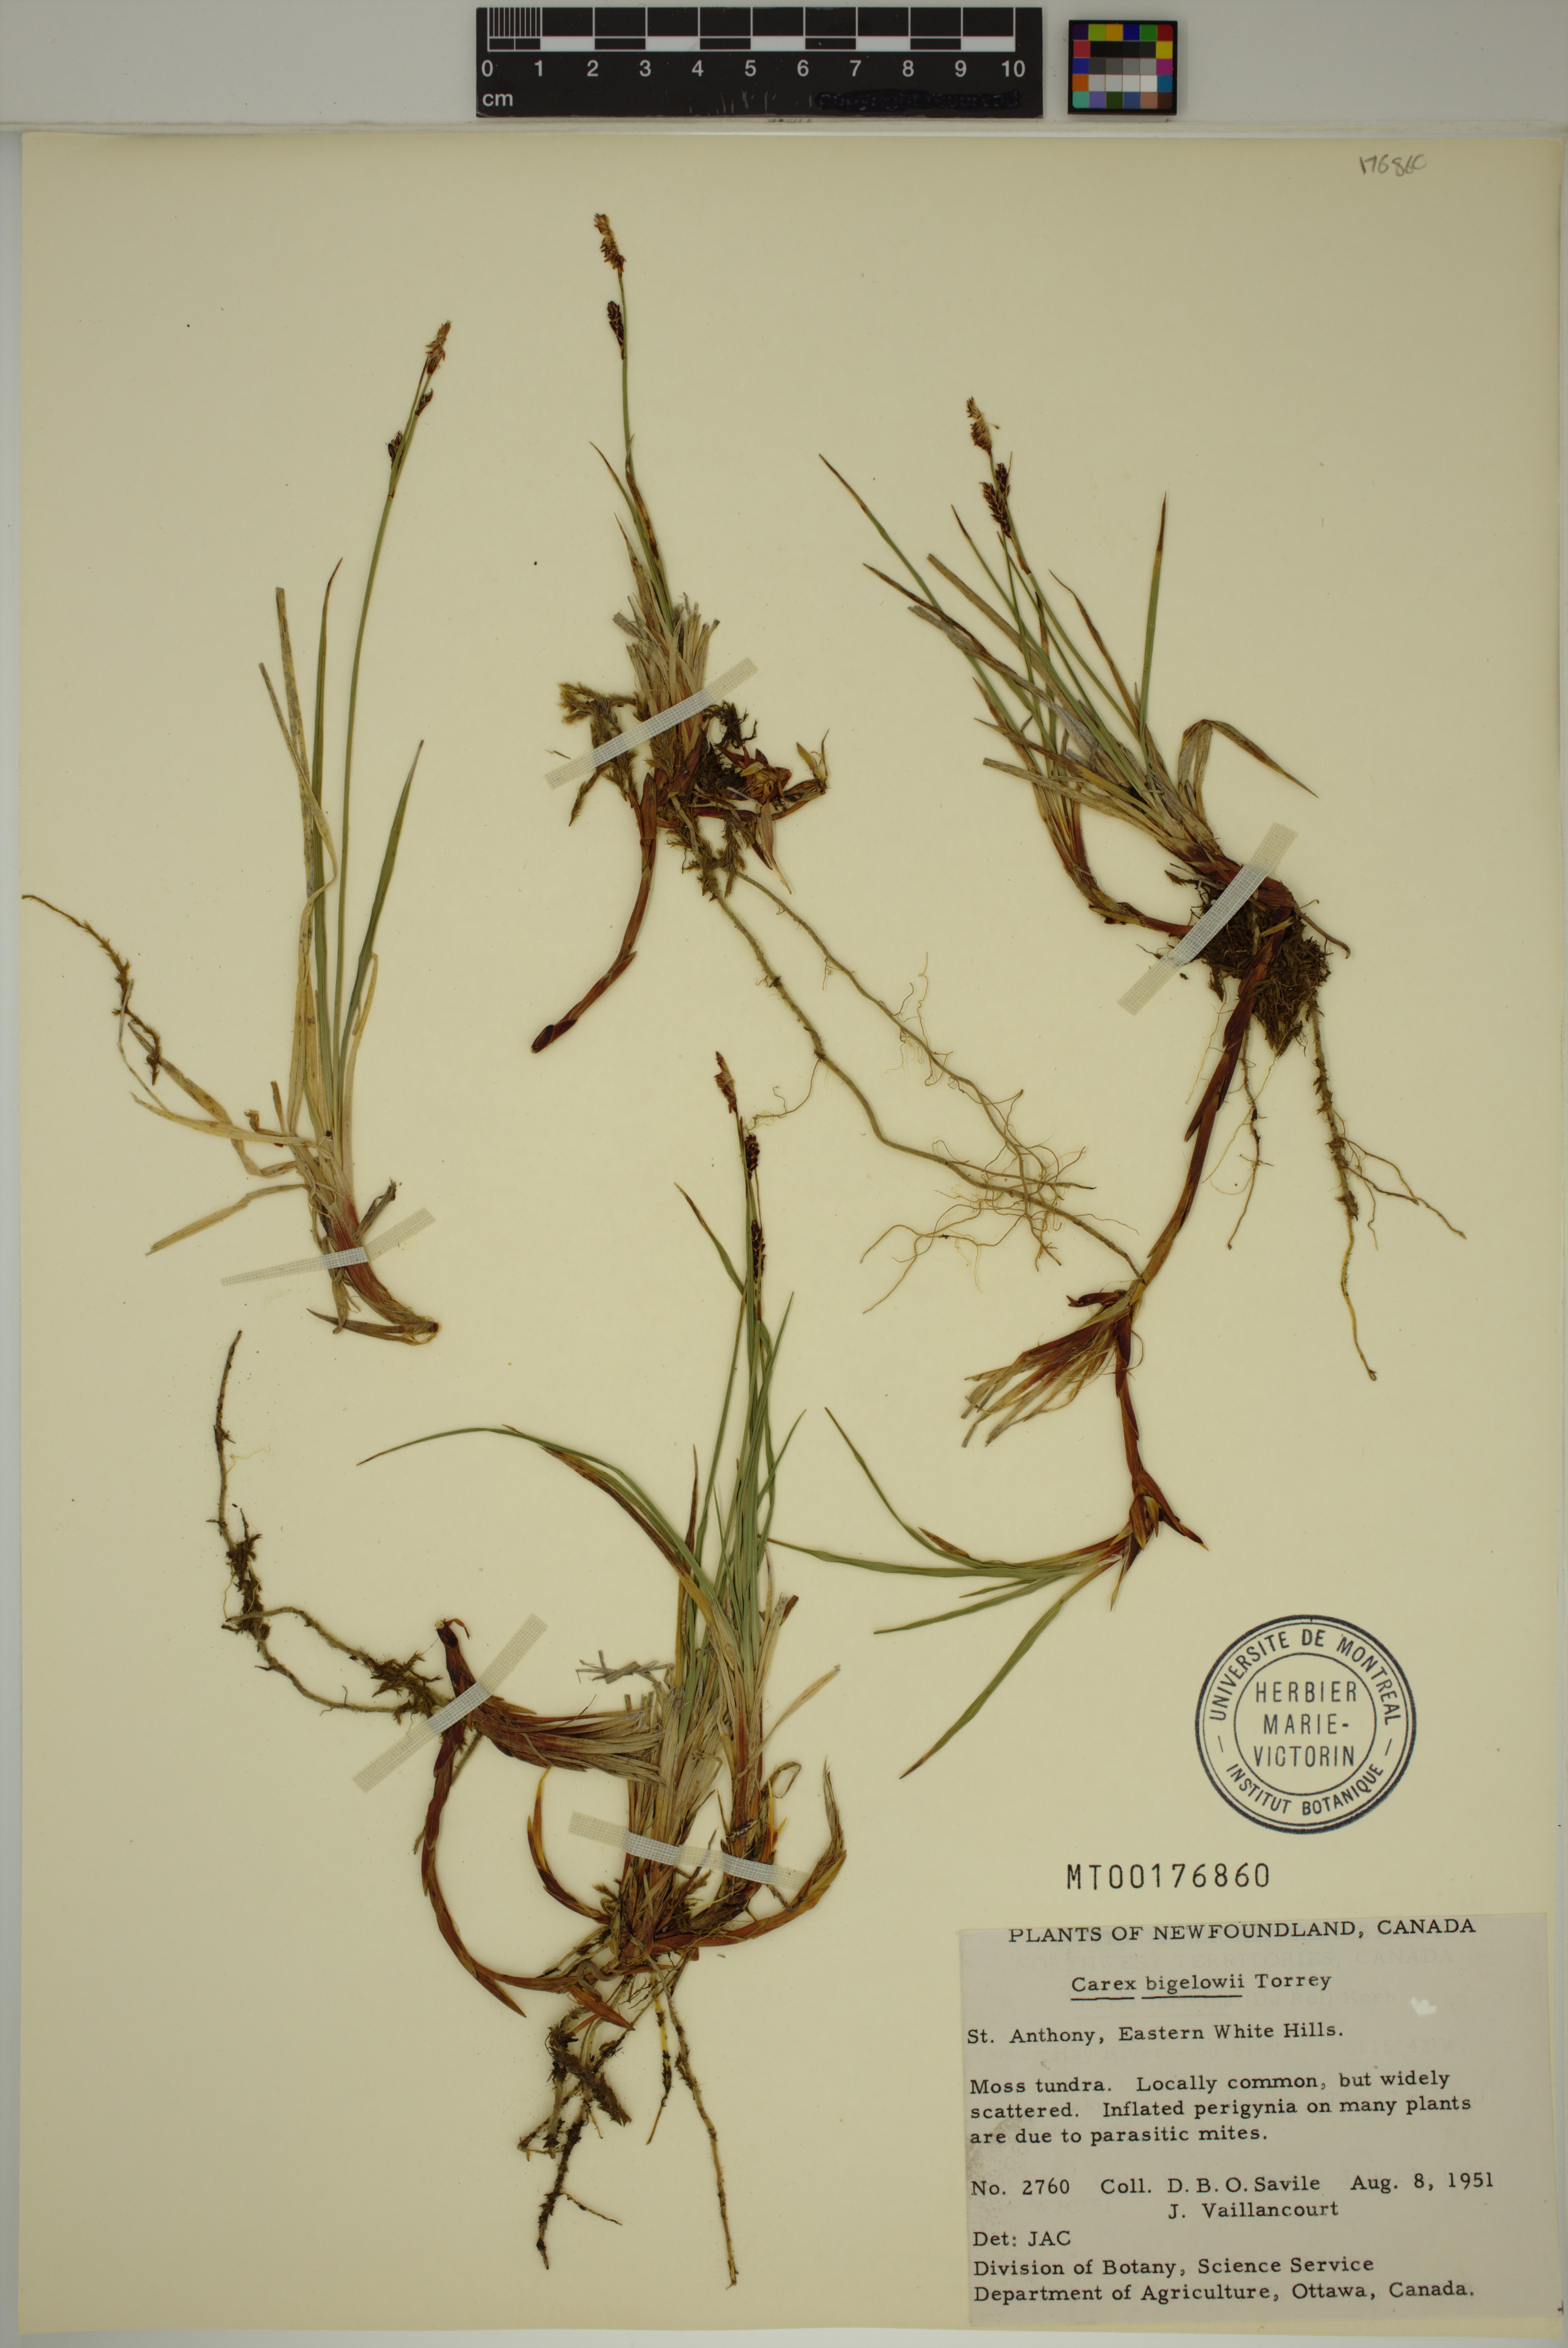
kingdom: Plantae
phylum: Tracheophyta
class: Liliopsida
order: Poales
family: Cyperaceae
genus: Carex
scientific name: Carex bigelowii
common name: Stiff sedge
